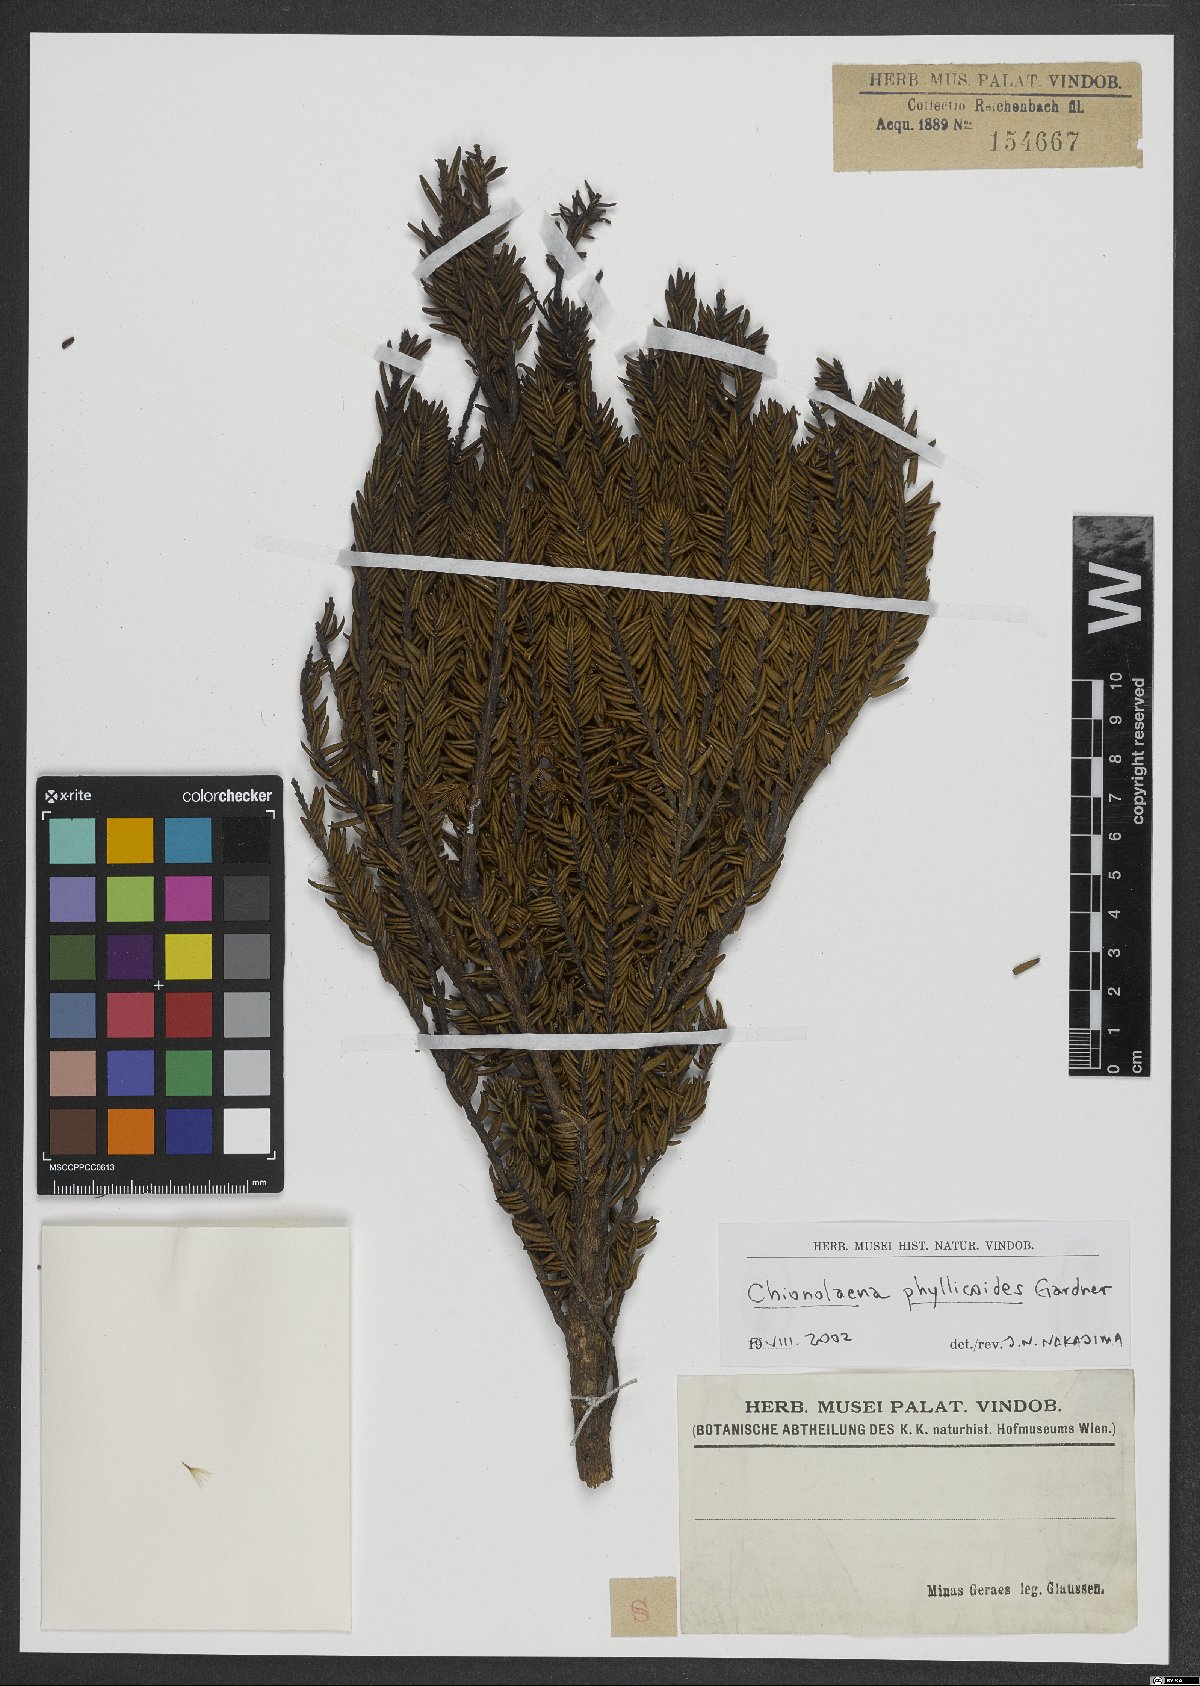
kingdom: Plantae
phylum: Tracheophyta
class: Magnoliopsida
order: Asterales
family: Asteraceae
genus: Chionolaena
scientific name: Chionolaena phylicoides
